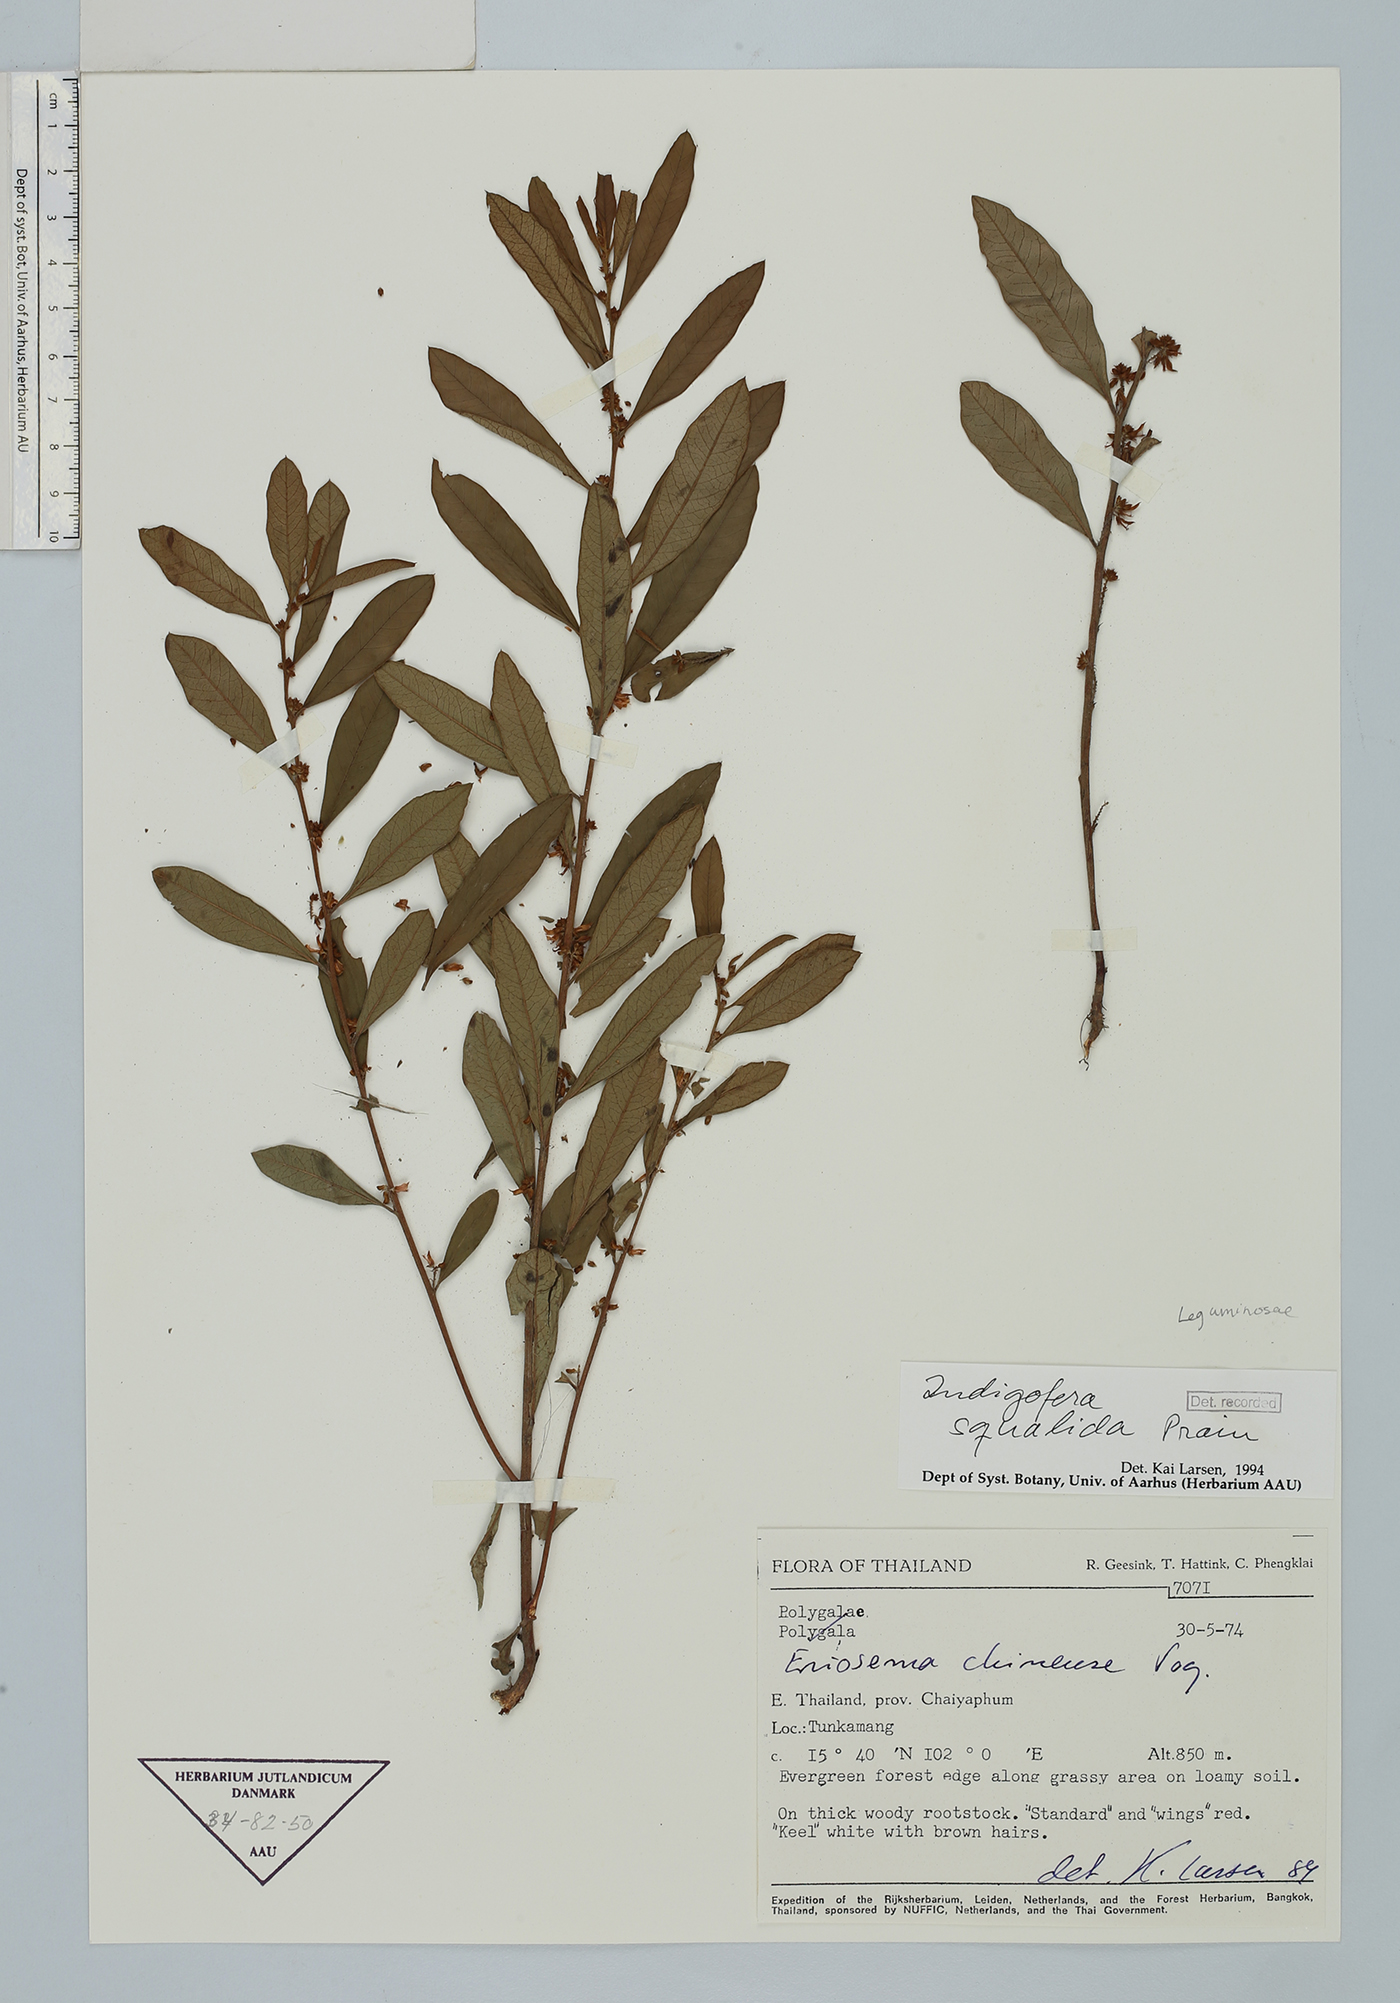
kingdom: Plantae
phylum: Tracheophyta
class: Magnoliopsida
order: Fabales
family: Fabaceae
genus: Indigofera
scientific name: Indigofera squalida
